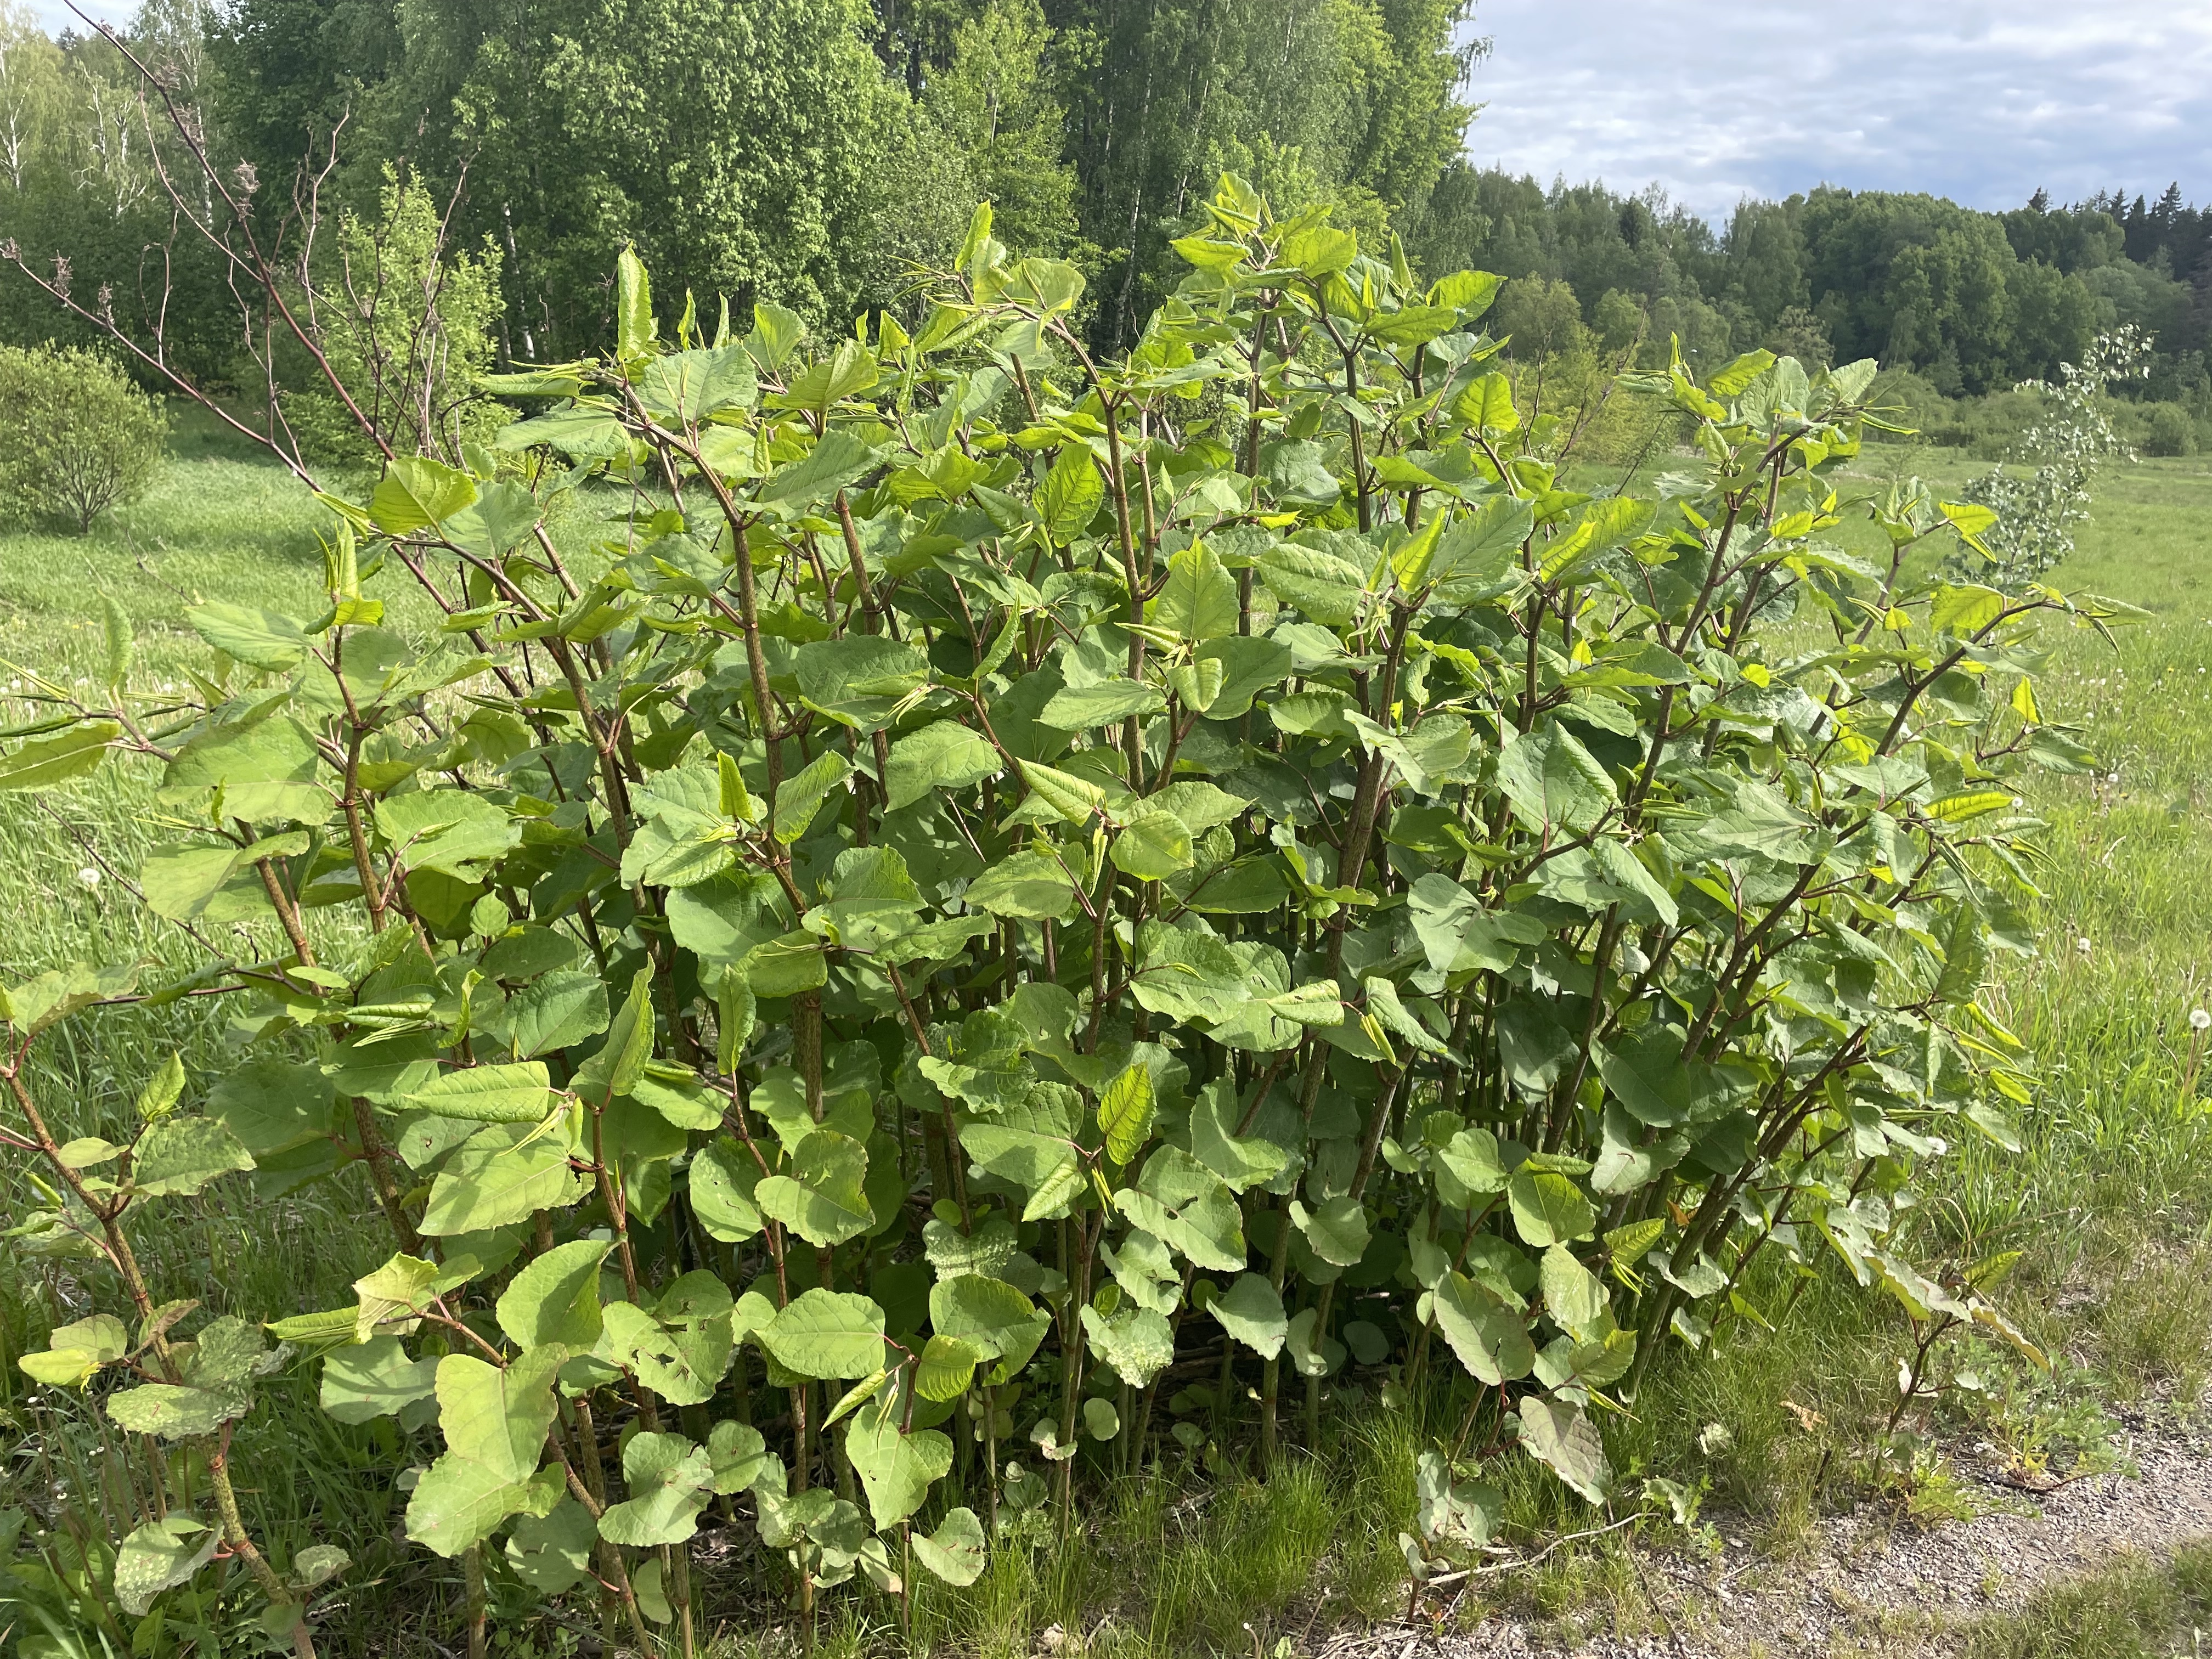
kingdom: Plantae
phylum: Tracheophyta
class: Magnoliopsida
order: Caryophyllales
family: Polygonaceae
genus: Reynoutria
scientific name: Reynoutria sachalinensis
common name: Giant knotweed
